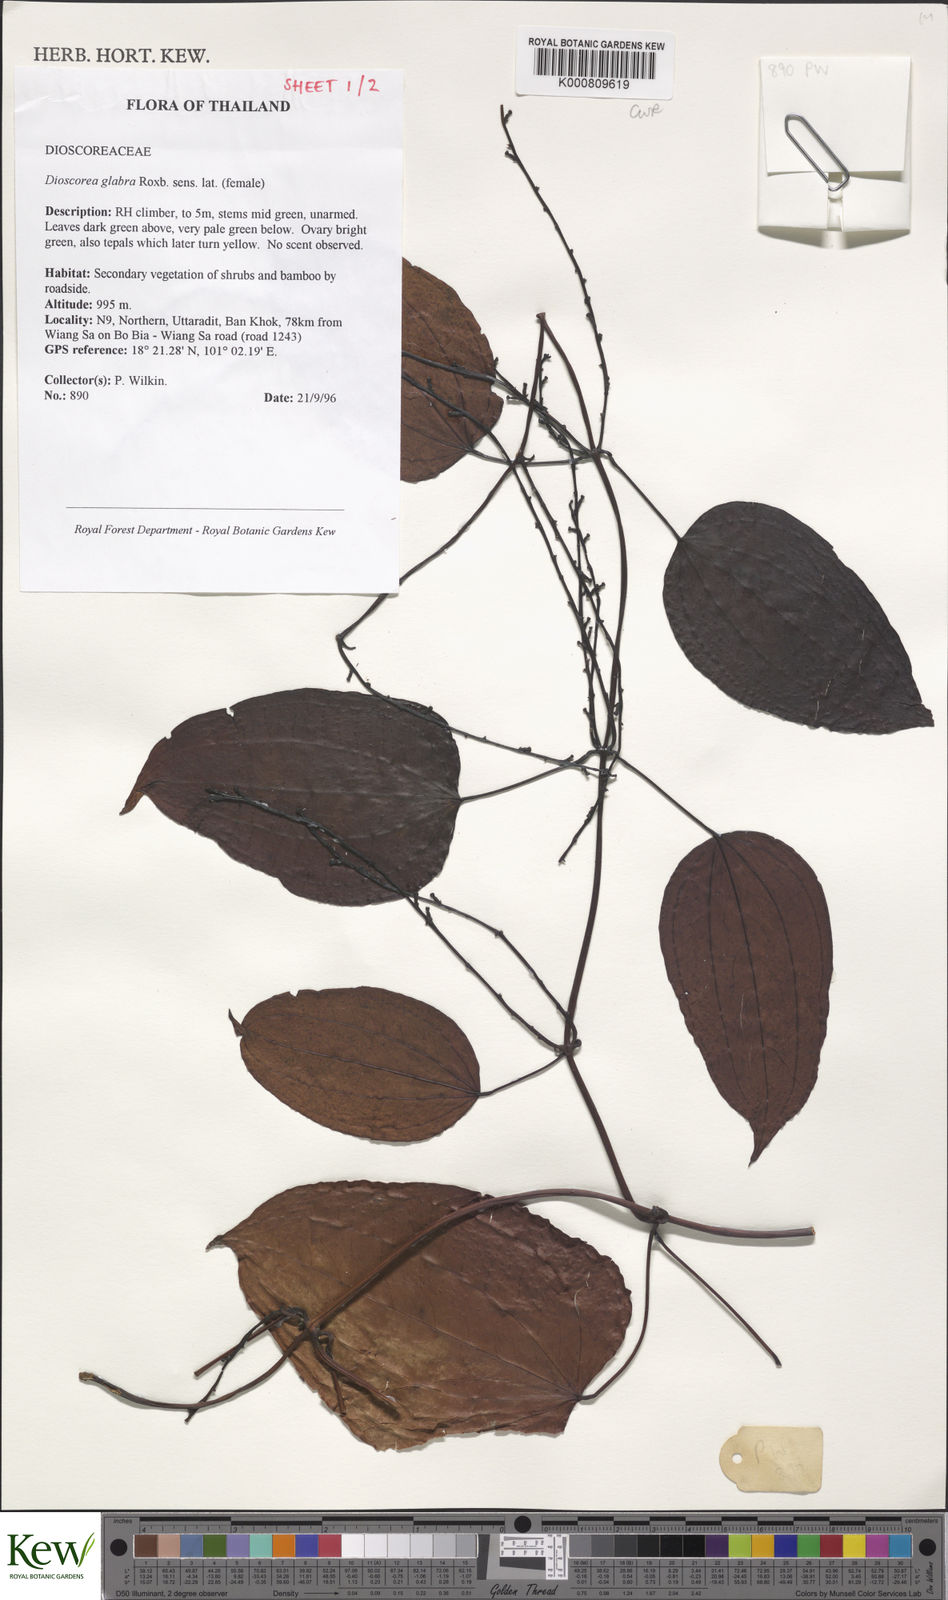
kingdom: Plantae
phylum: Tracheophyta
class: Liliopsida
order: Dioscoreales
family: Dioscoreaceae
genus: Dioscorea
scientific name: Dioscorea glabra
